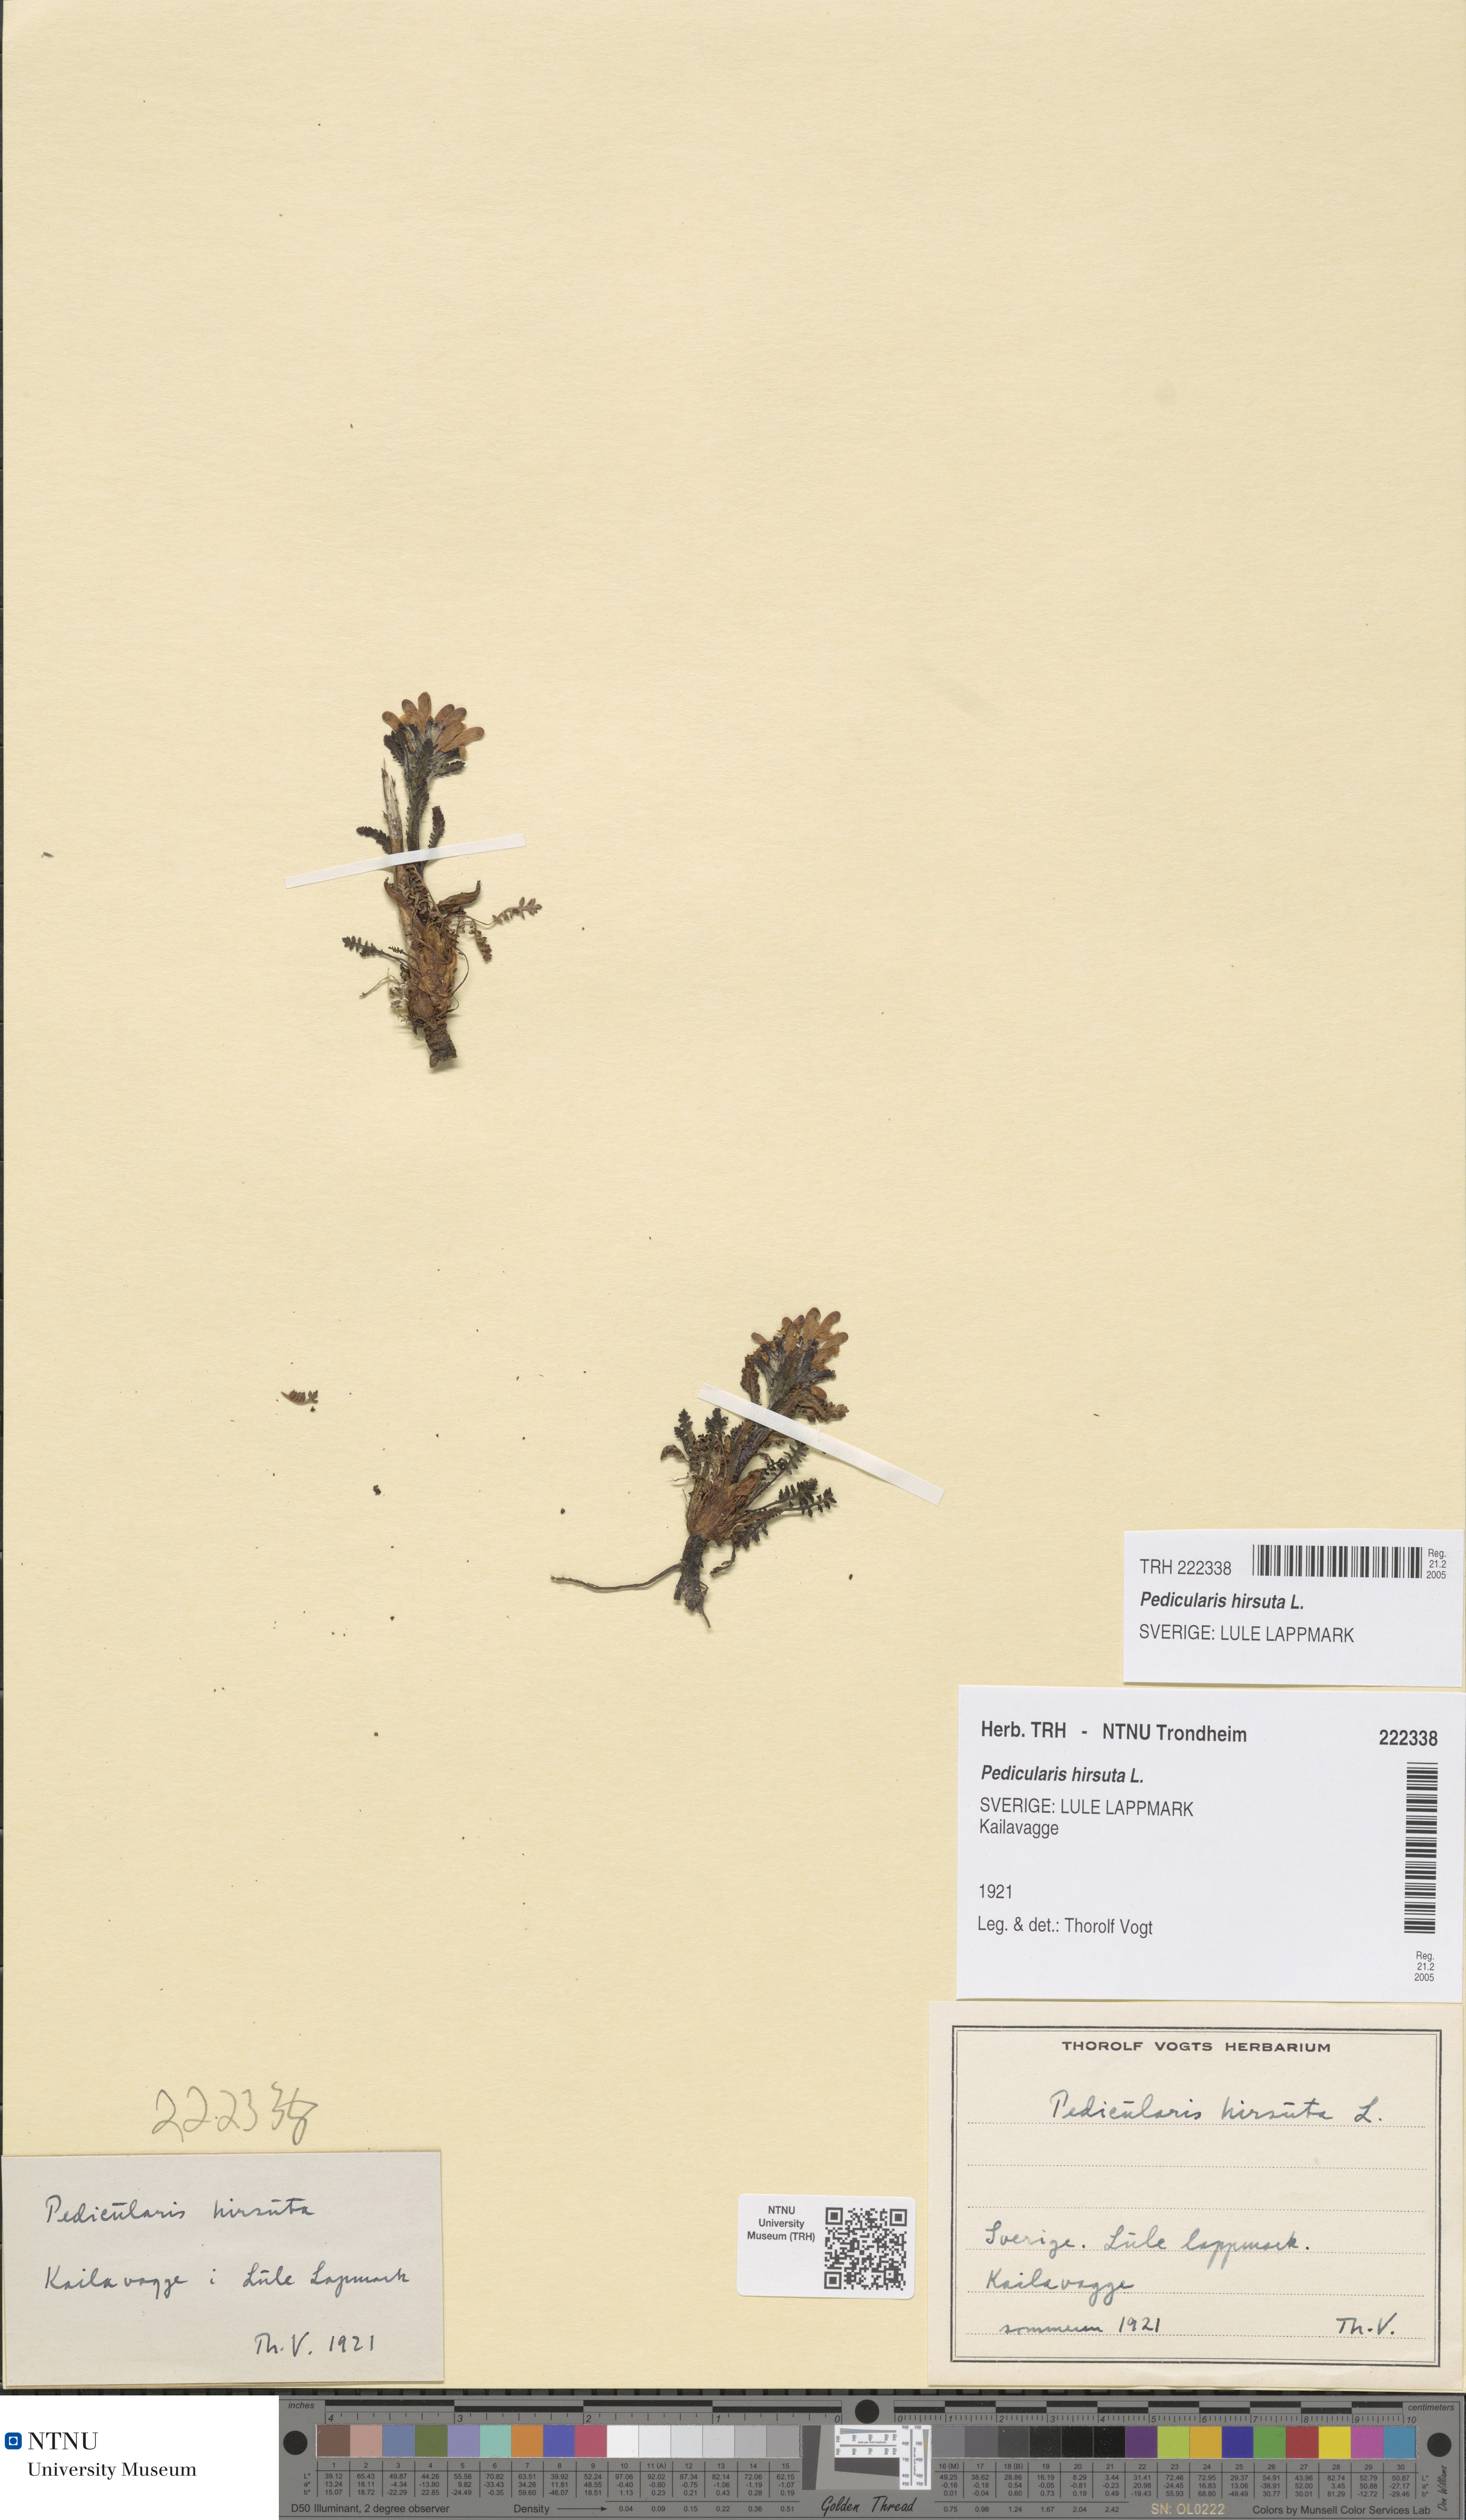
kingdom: Plantae
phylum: Tracheophyta
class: Magnoliopsida
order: Lamiales
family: Orobanchaceae
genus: Pedicularis
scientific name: Pedicularis hirsuta
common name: Hairy lousewort
